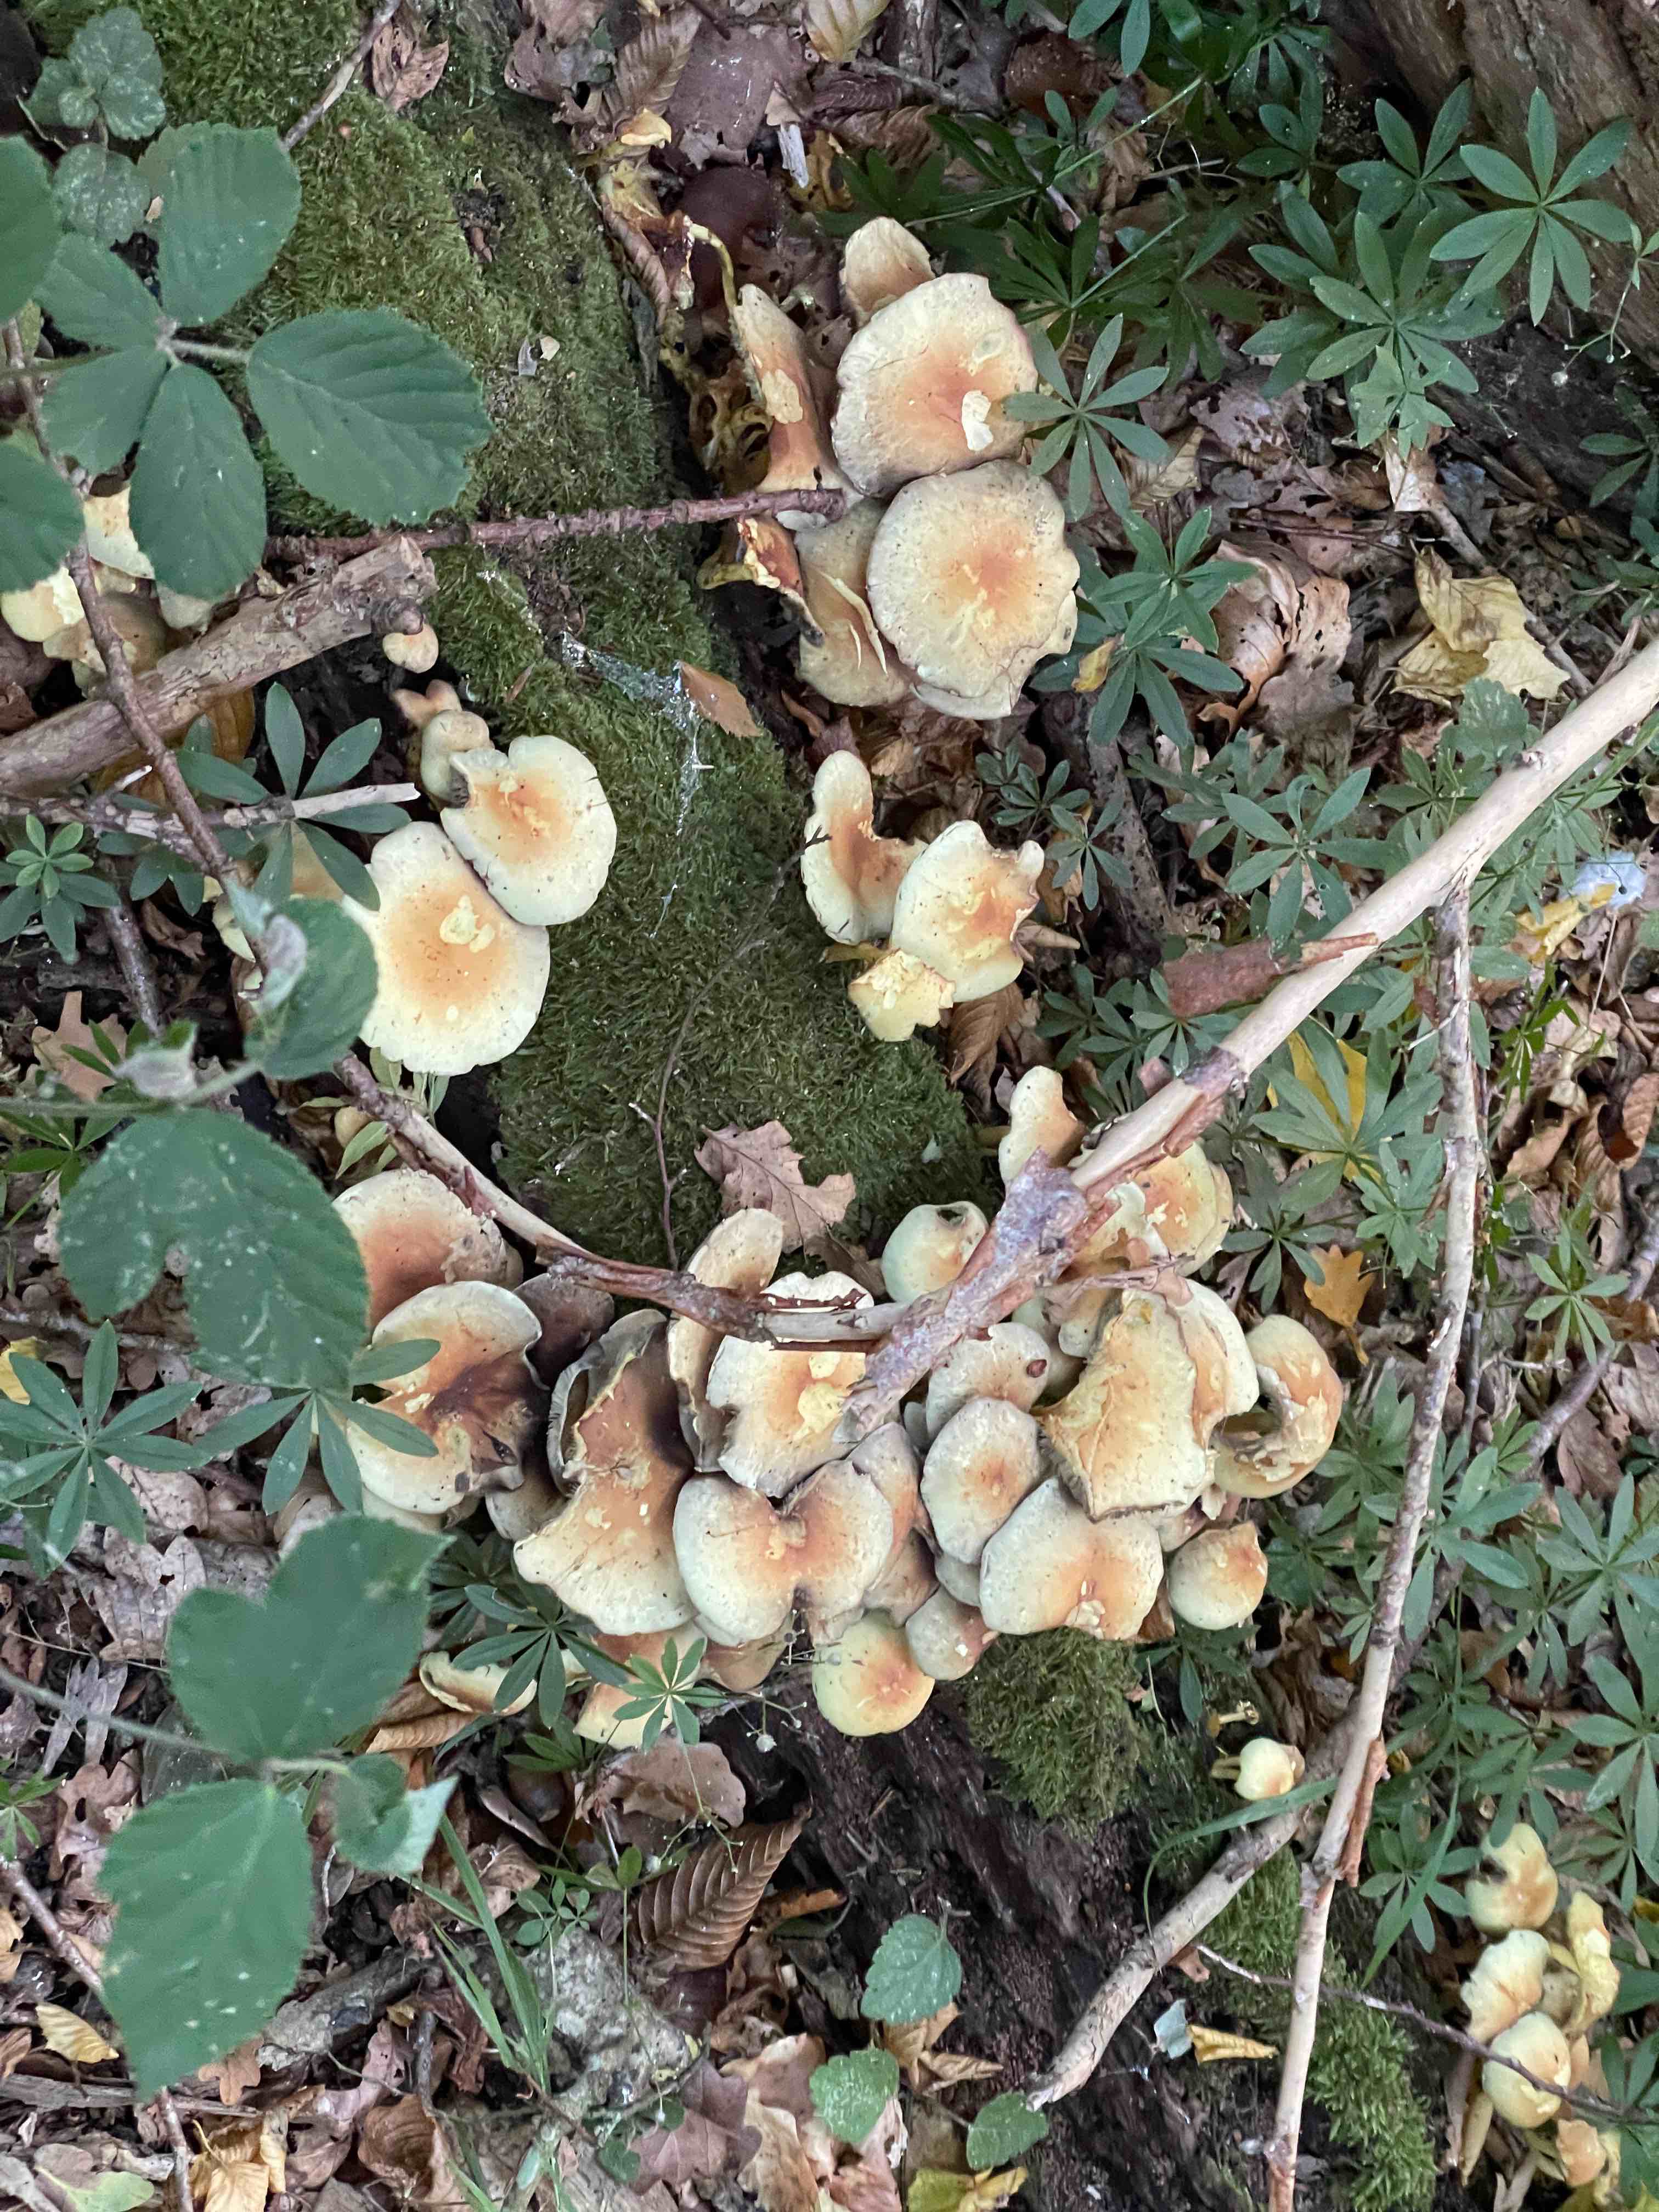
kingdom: Fungi
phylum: Basidiomycota
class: Agaricomycetes
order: Agaricales
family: Strophariaceae
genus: Hypholoma
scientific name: Hypholoma fasciculare
